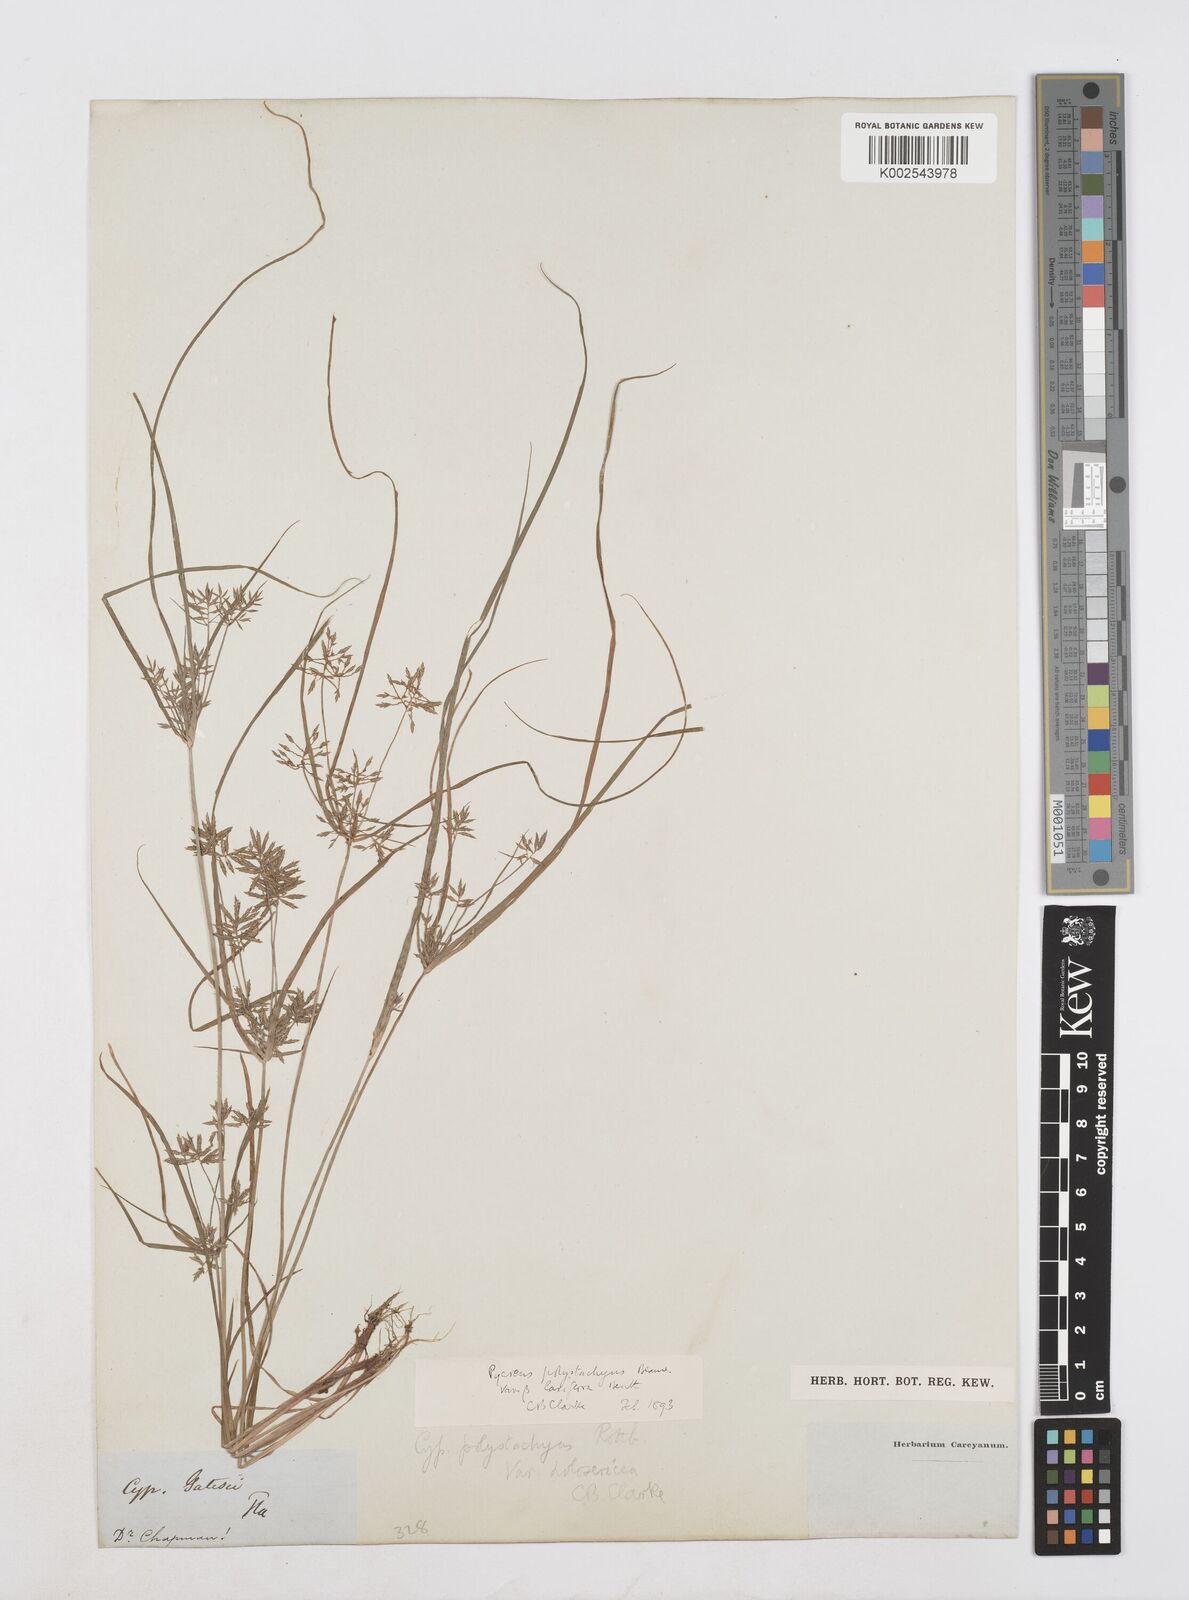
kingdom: Plantae
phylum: Tracheophyta
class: Liliopsida
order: Poales
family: Cyperaceae
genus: Cyperus
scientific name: Cyperus polystachyos
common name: Bunchy flat sedge
